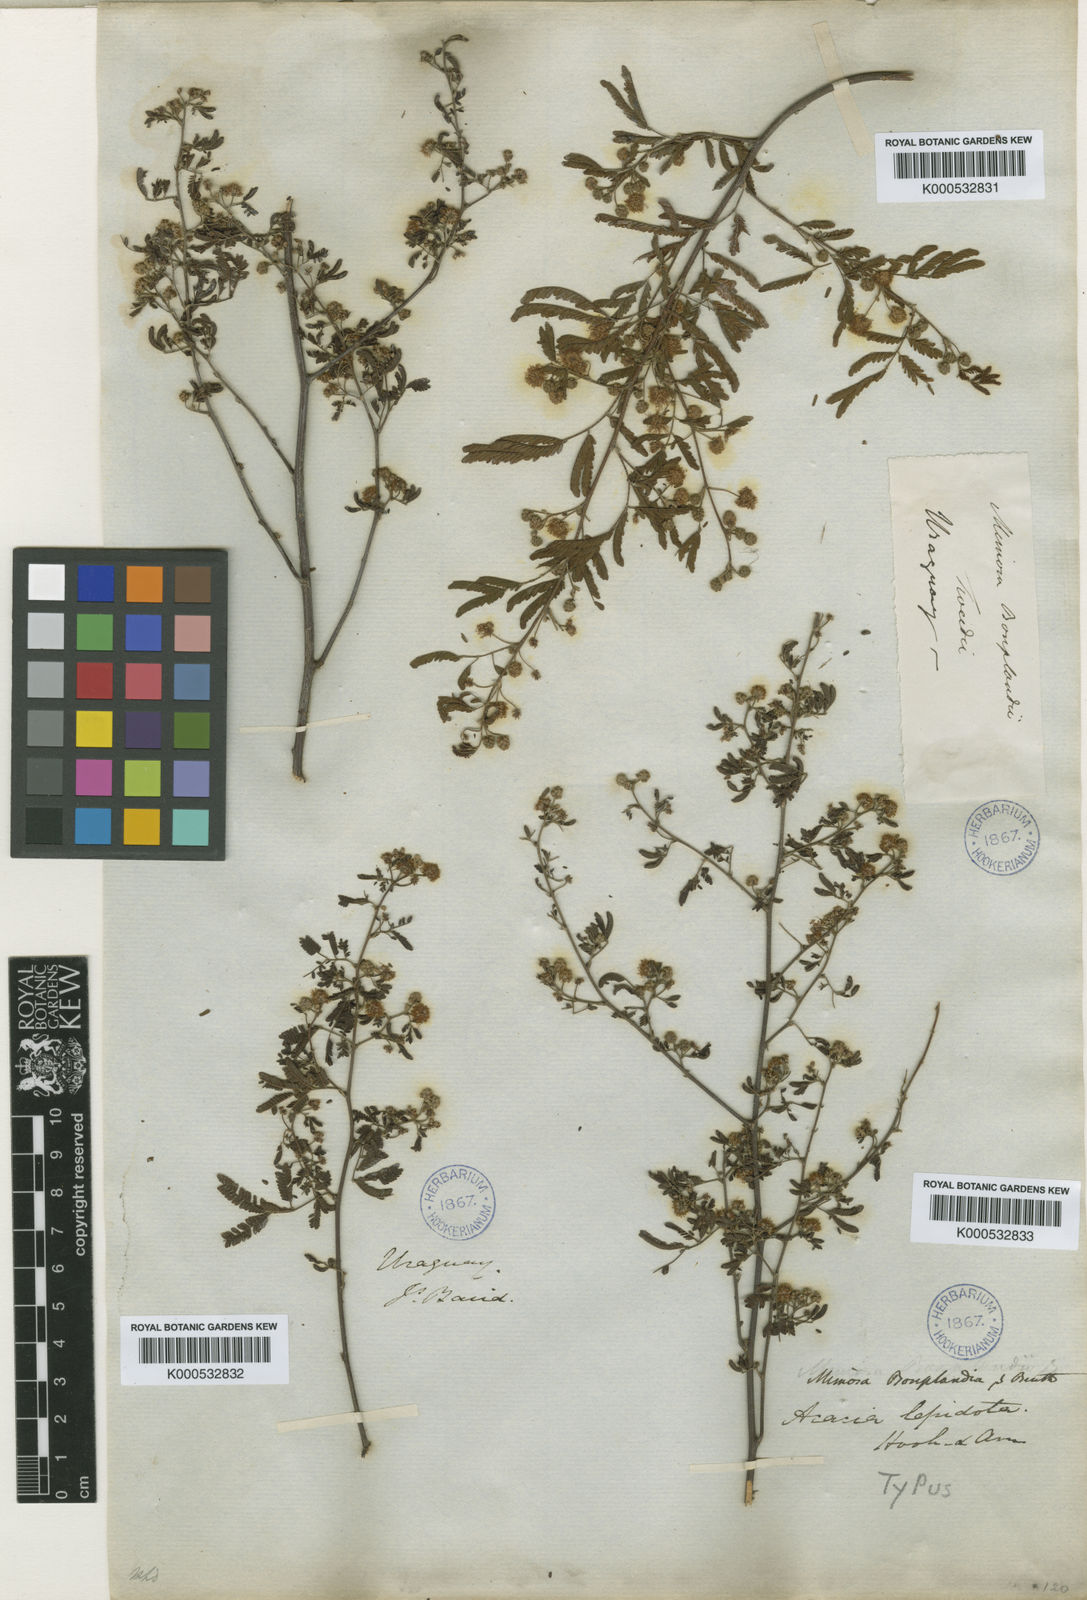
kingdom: Plantae
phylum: Tracheophyta
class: Magnoliopsida
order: Fabales
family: Fabaceae
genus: Mimosa
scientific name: Mimosa bonplandii
